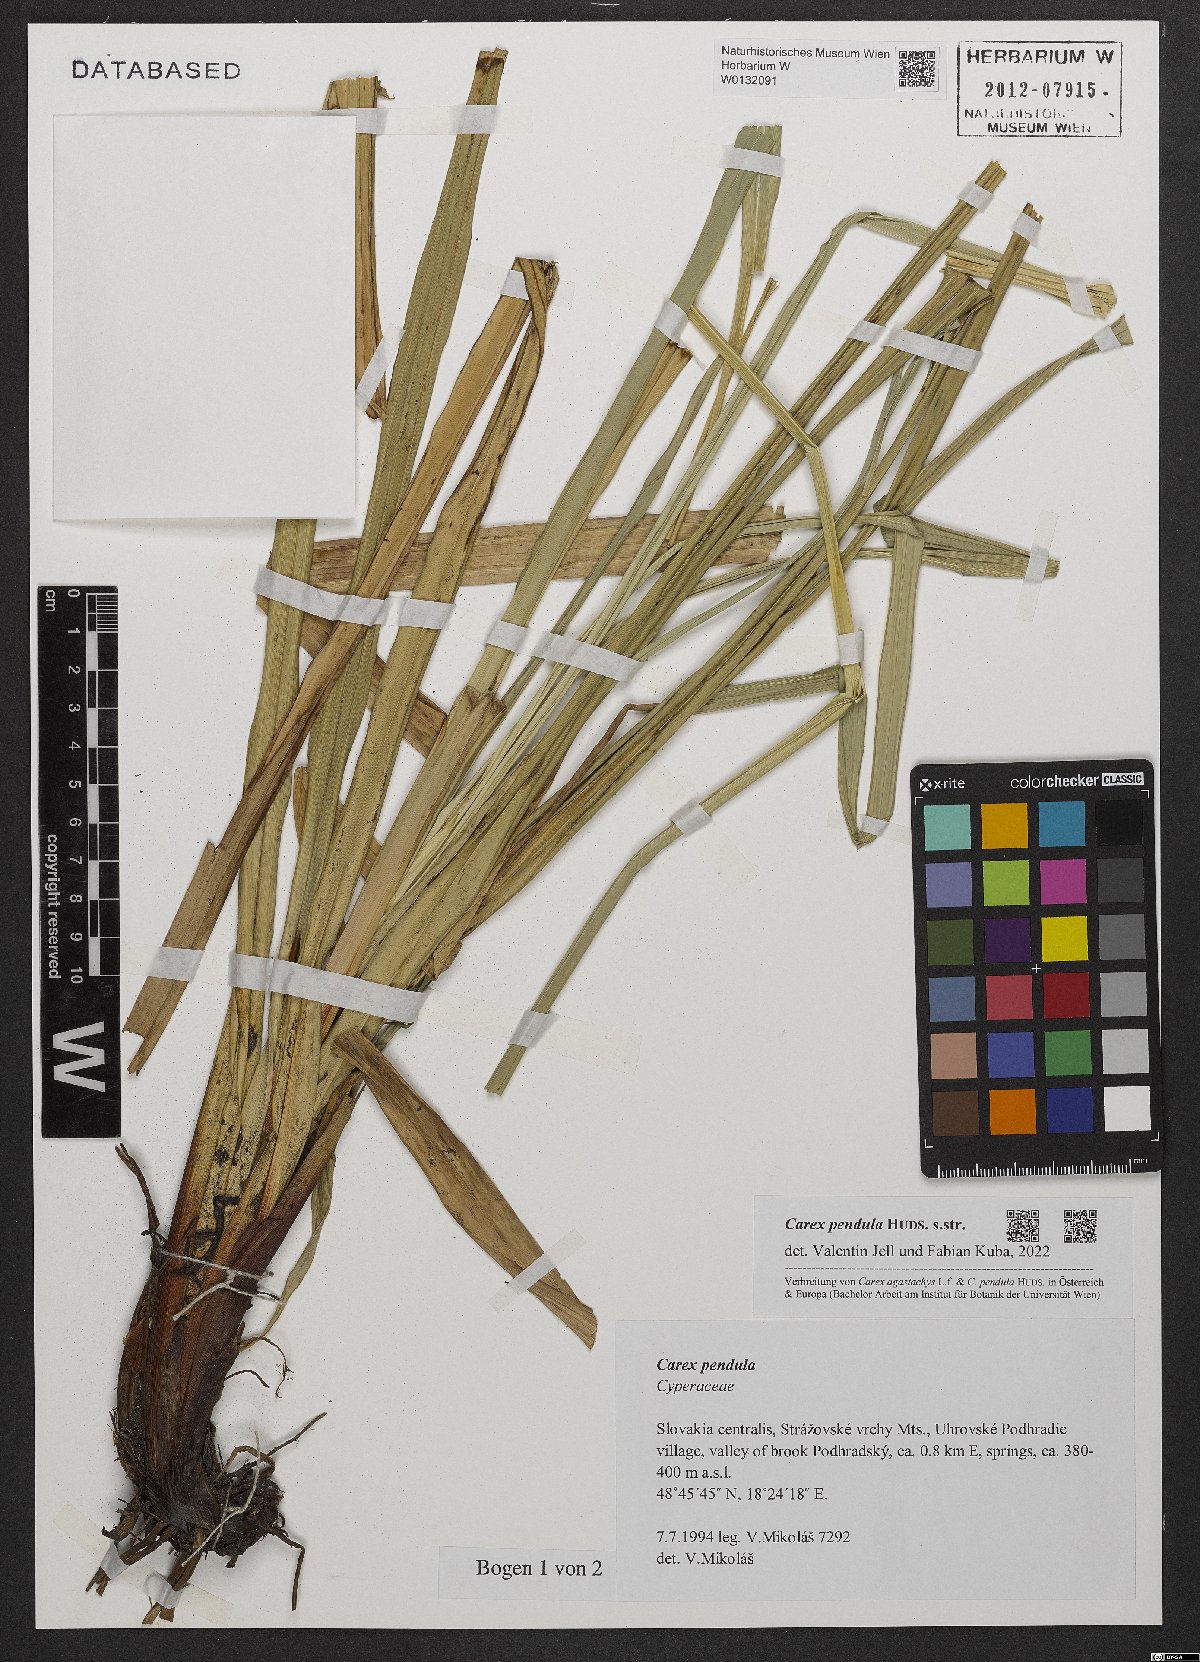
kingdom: Plantae
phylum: Tracheophyta
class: Liliopsida
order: Poales
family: Cyperaceae
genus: Carex
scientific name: Carex pendula
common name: Pendulous sedge
